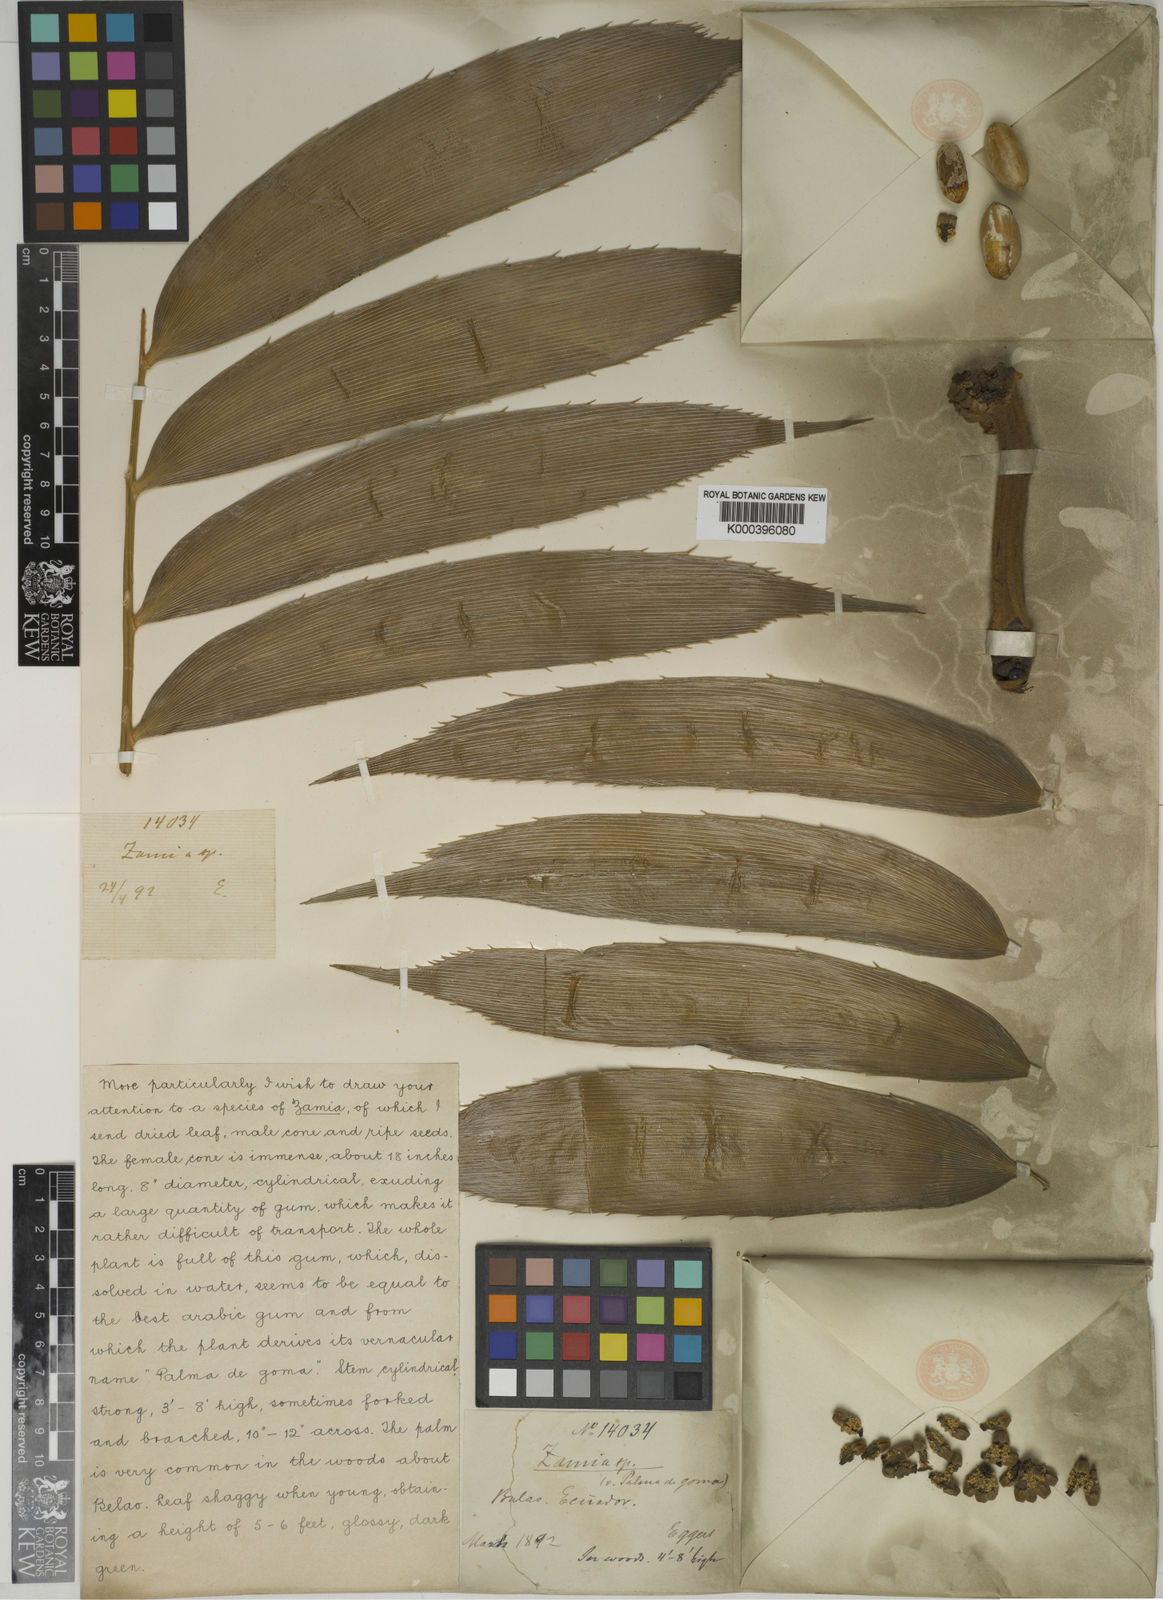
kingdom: Plantae
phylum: Tracheophyta
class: Cycadopsida
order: Cycadales
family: Zamiaceae
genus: Zamia
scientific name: Zamia
